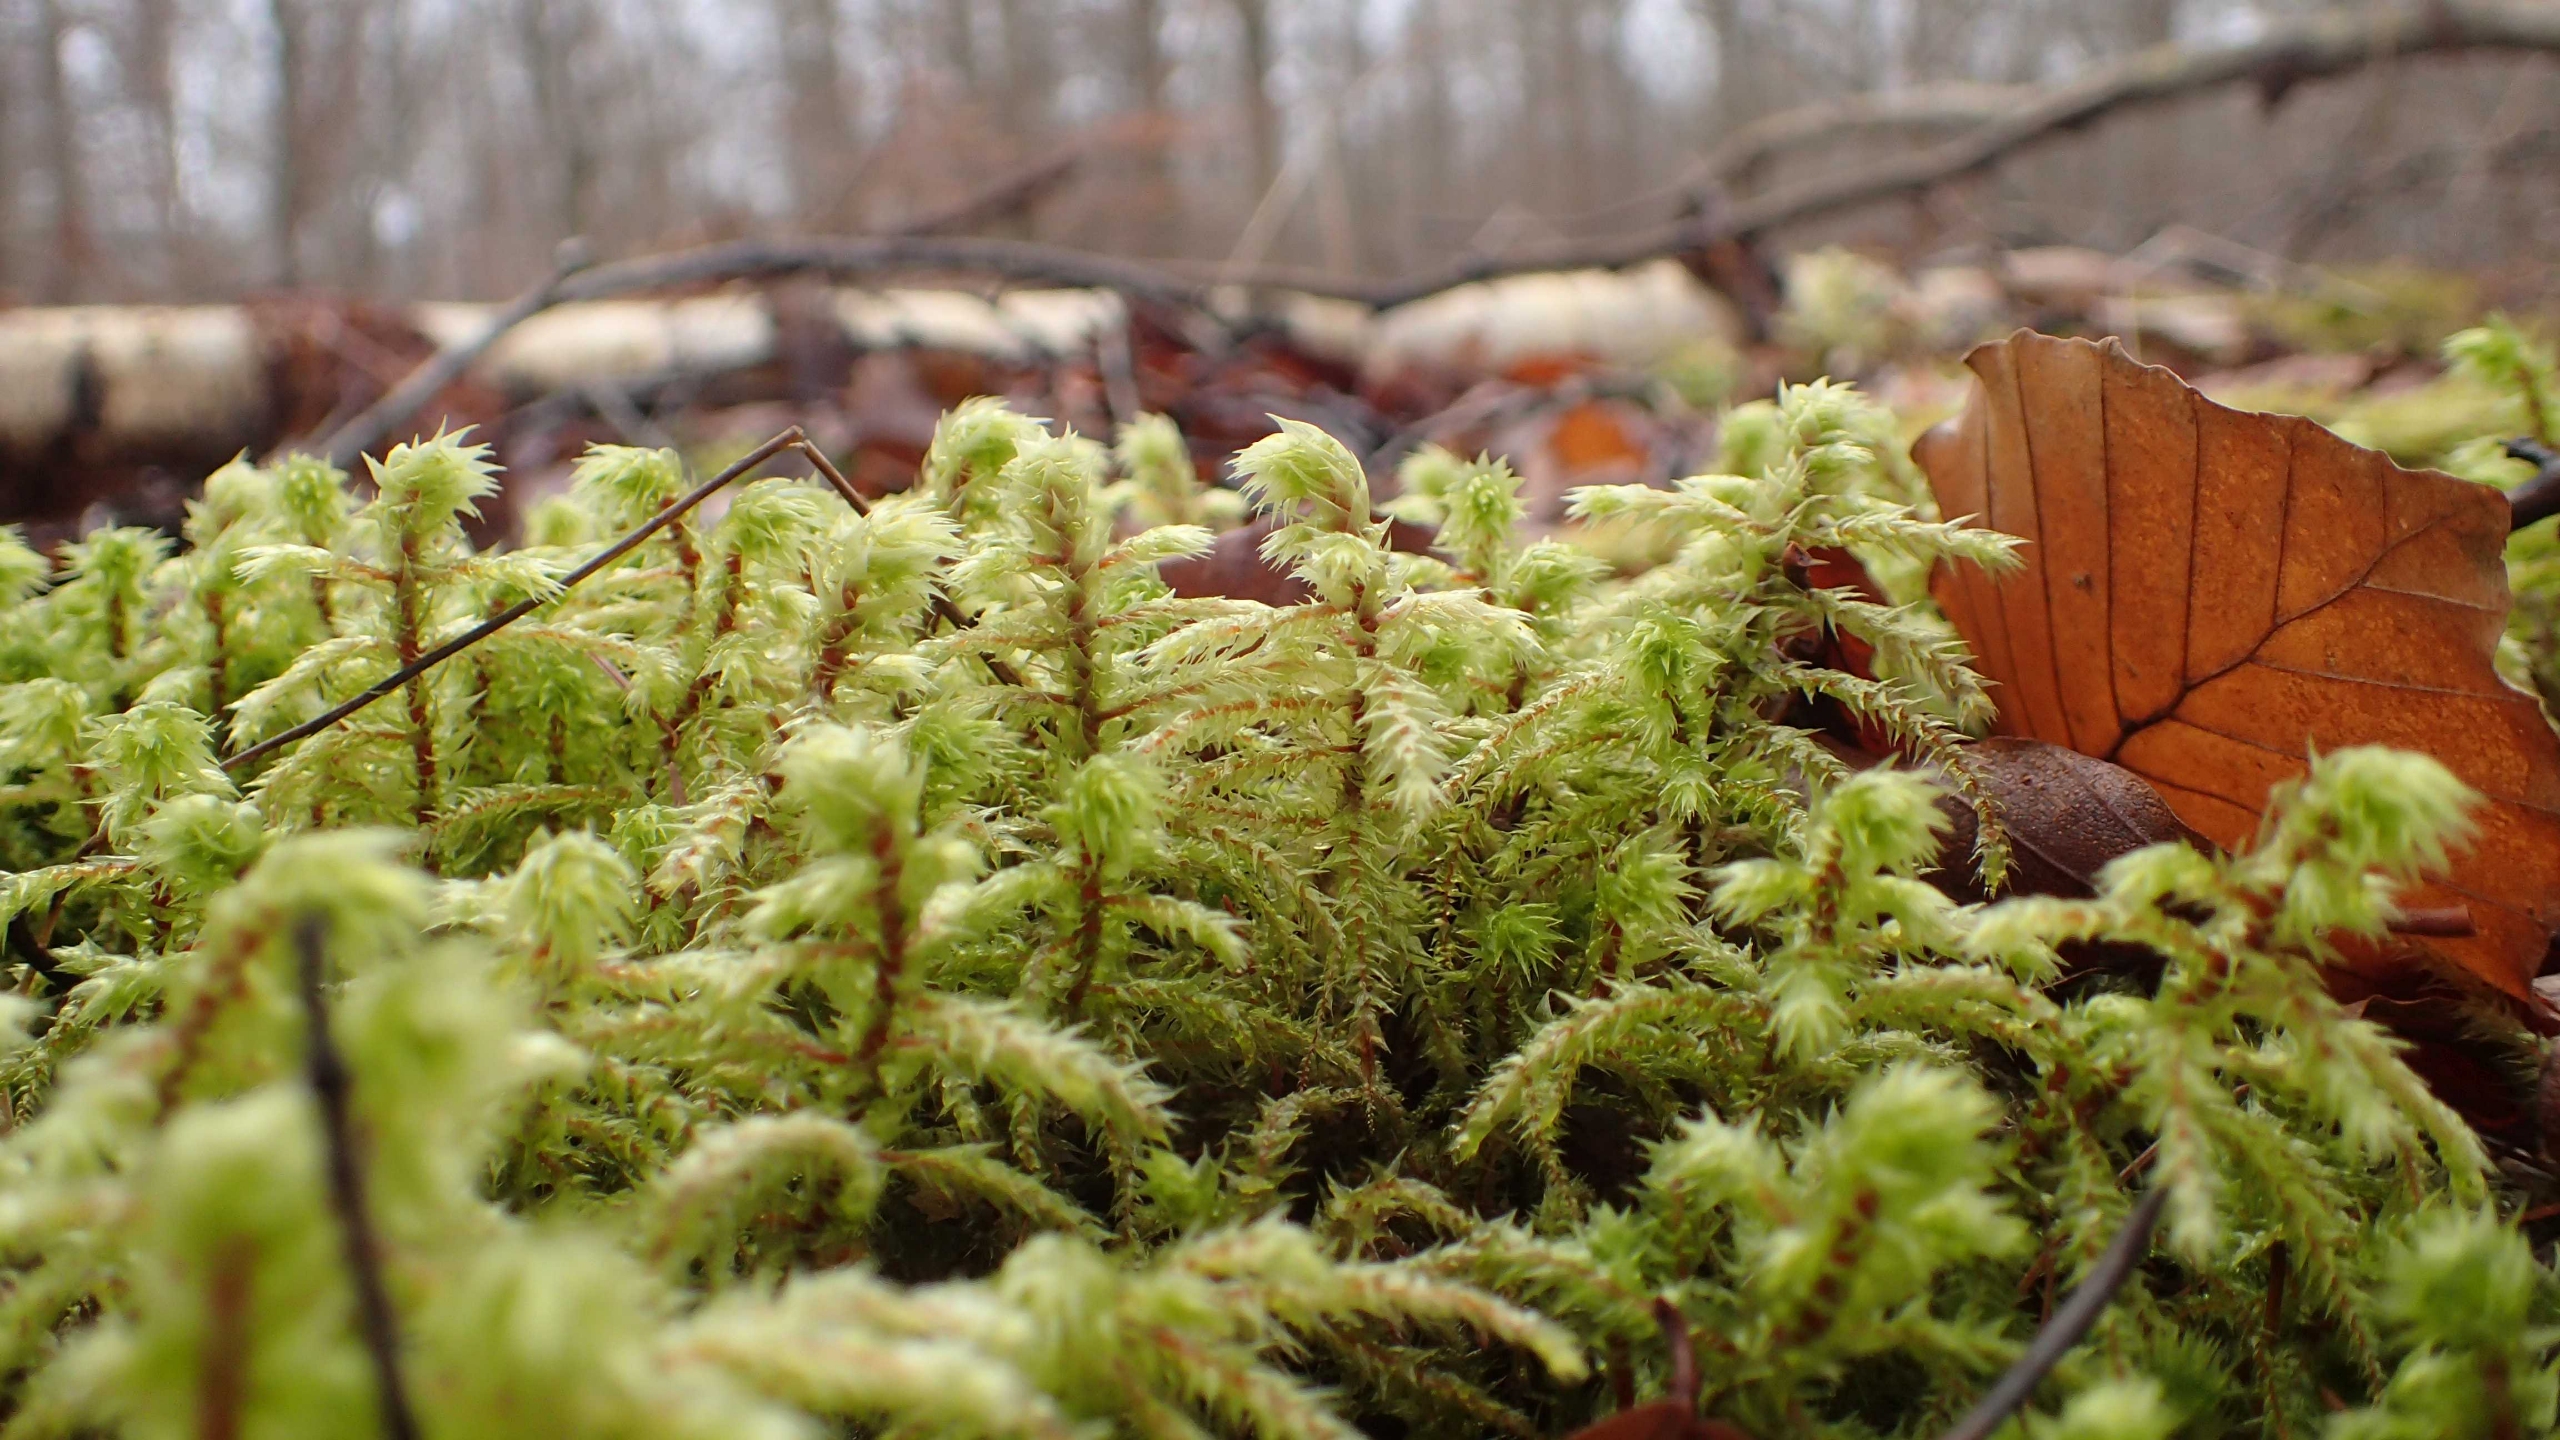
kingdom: Plantae
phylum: Bryophyta
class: Bryopsida
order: Hypnales
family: Hylocomiaceae
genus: Hylocomiadelphus
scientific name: Hylocomiadelphus triquetrus
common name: Stor kransemos
